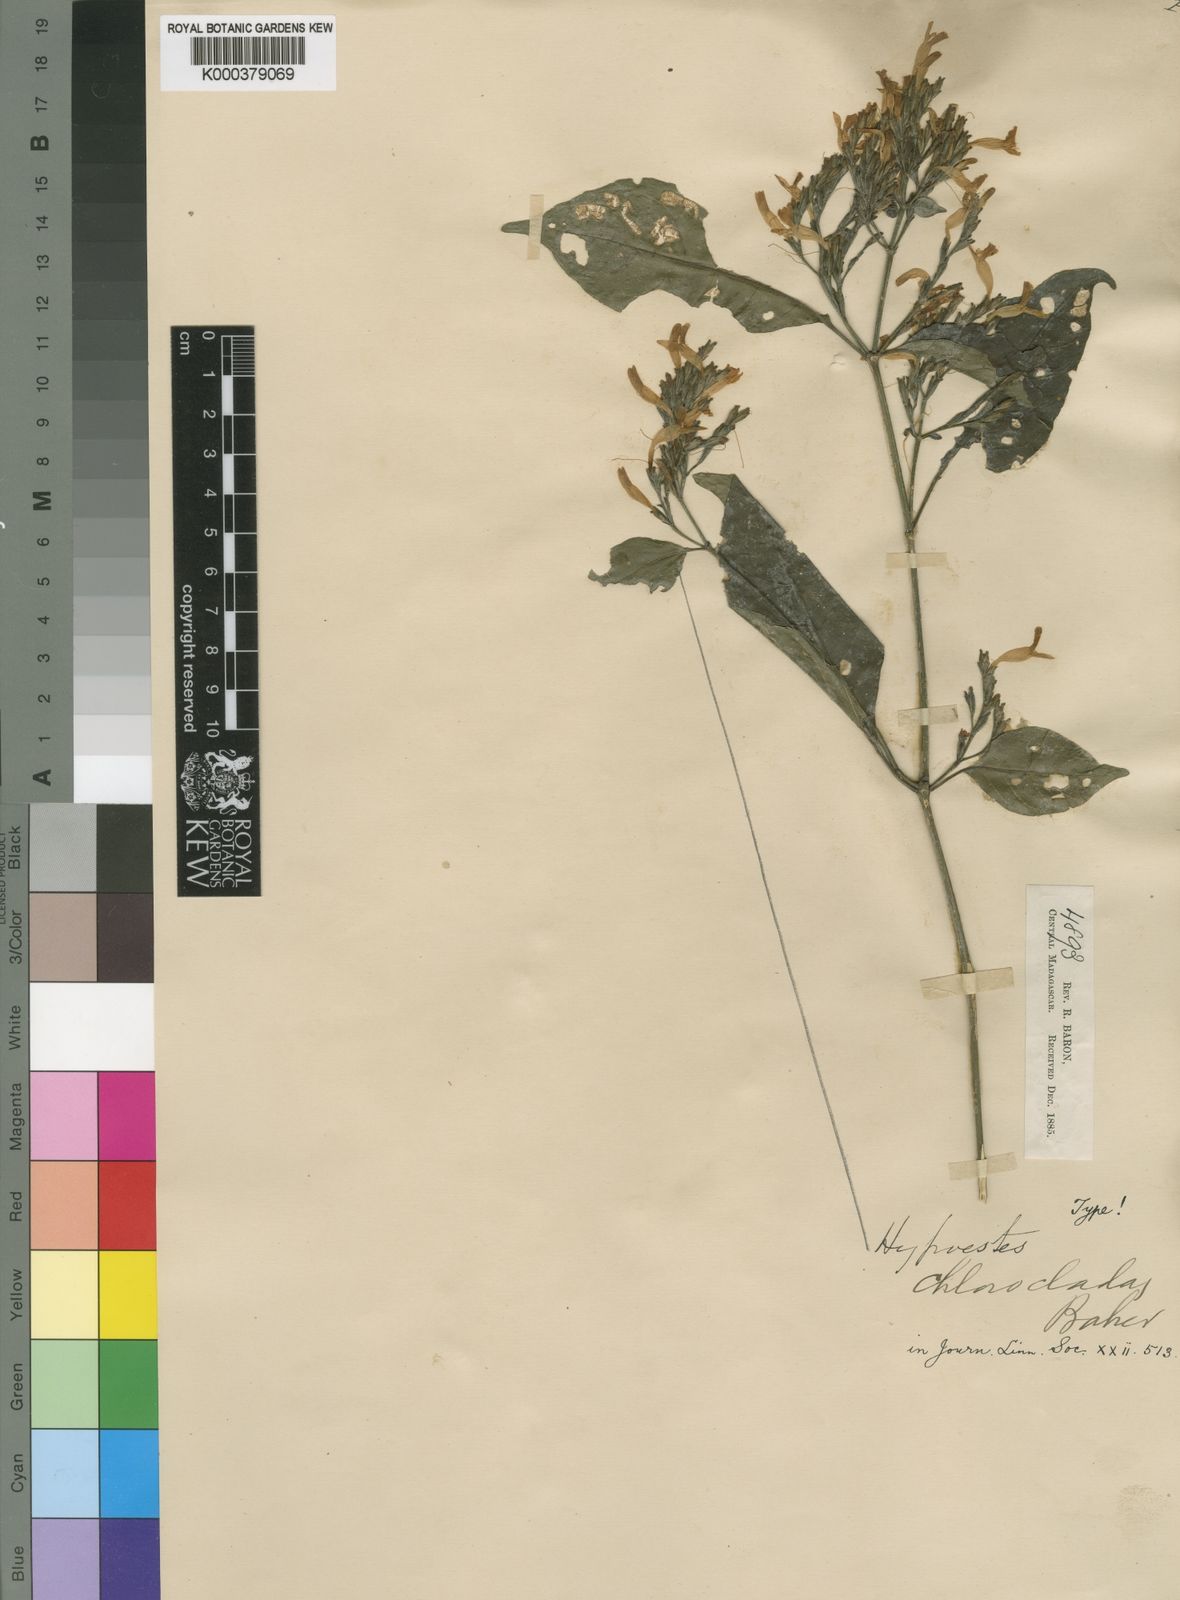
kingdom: Plantae
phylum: Tracheophyta
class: Magnoliopsida
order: Lamiales
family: Acanthaceae
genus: Hypoestes
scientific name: Hypoestes chloroclada
